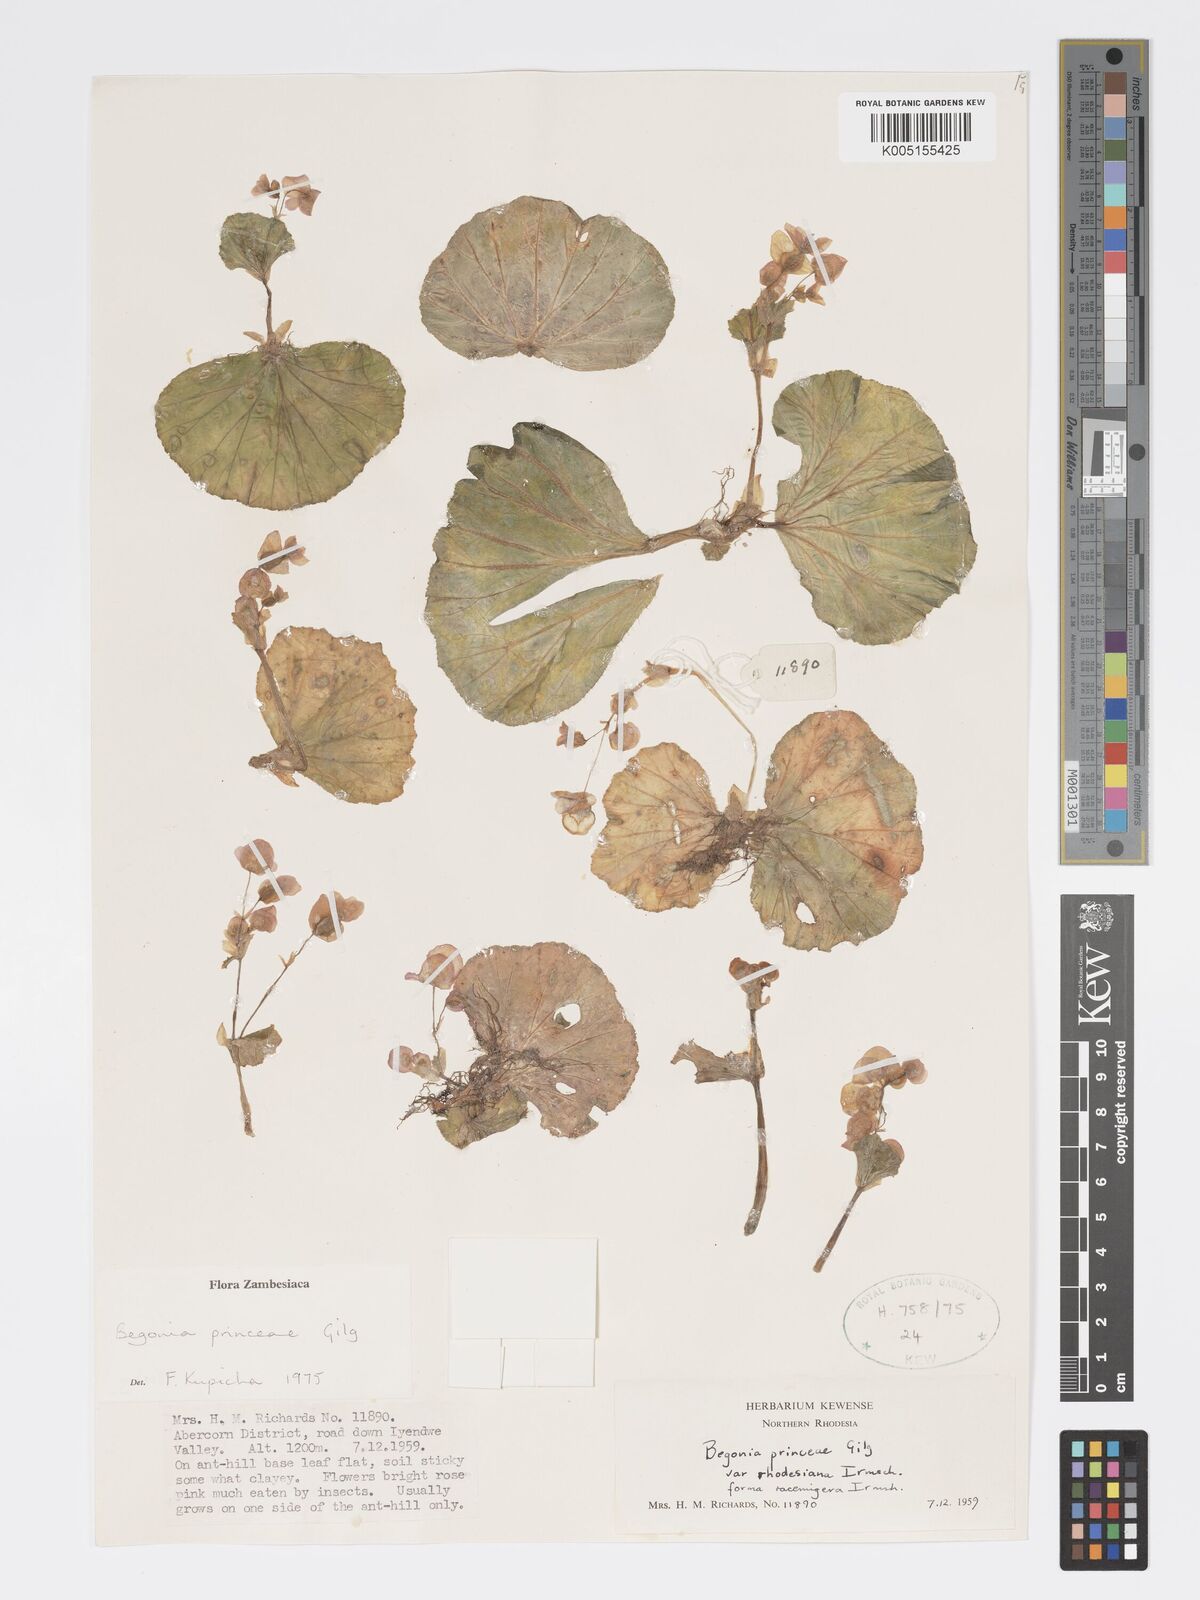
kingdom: Plantae
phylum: Tracheophyta
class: Magnoliopsida
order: Cucurbitales
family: Begoniaceae
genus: Begonia
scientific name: Begonia princeae
